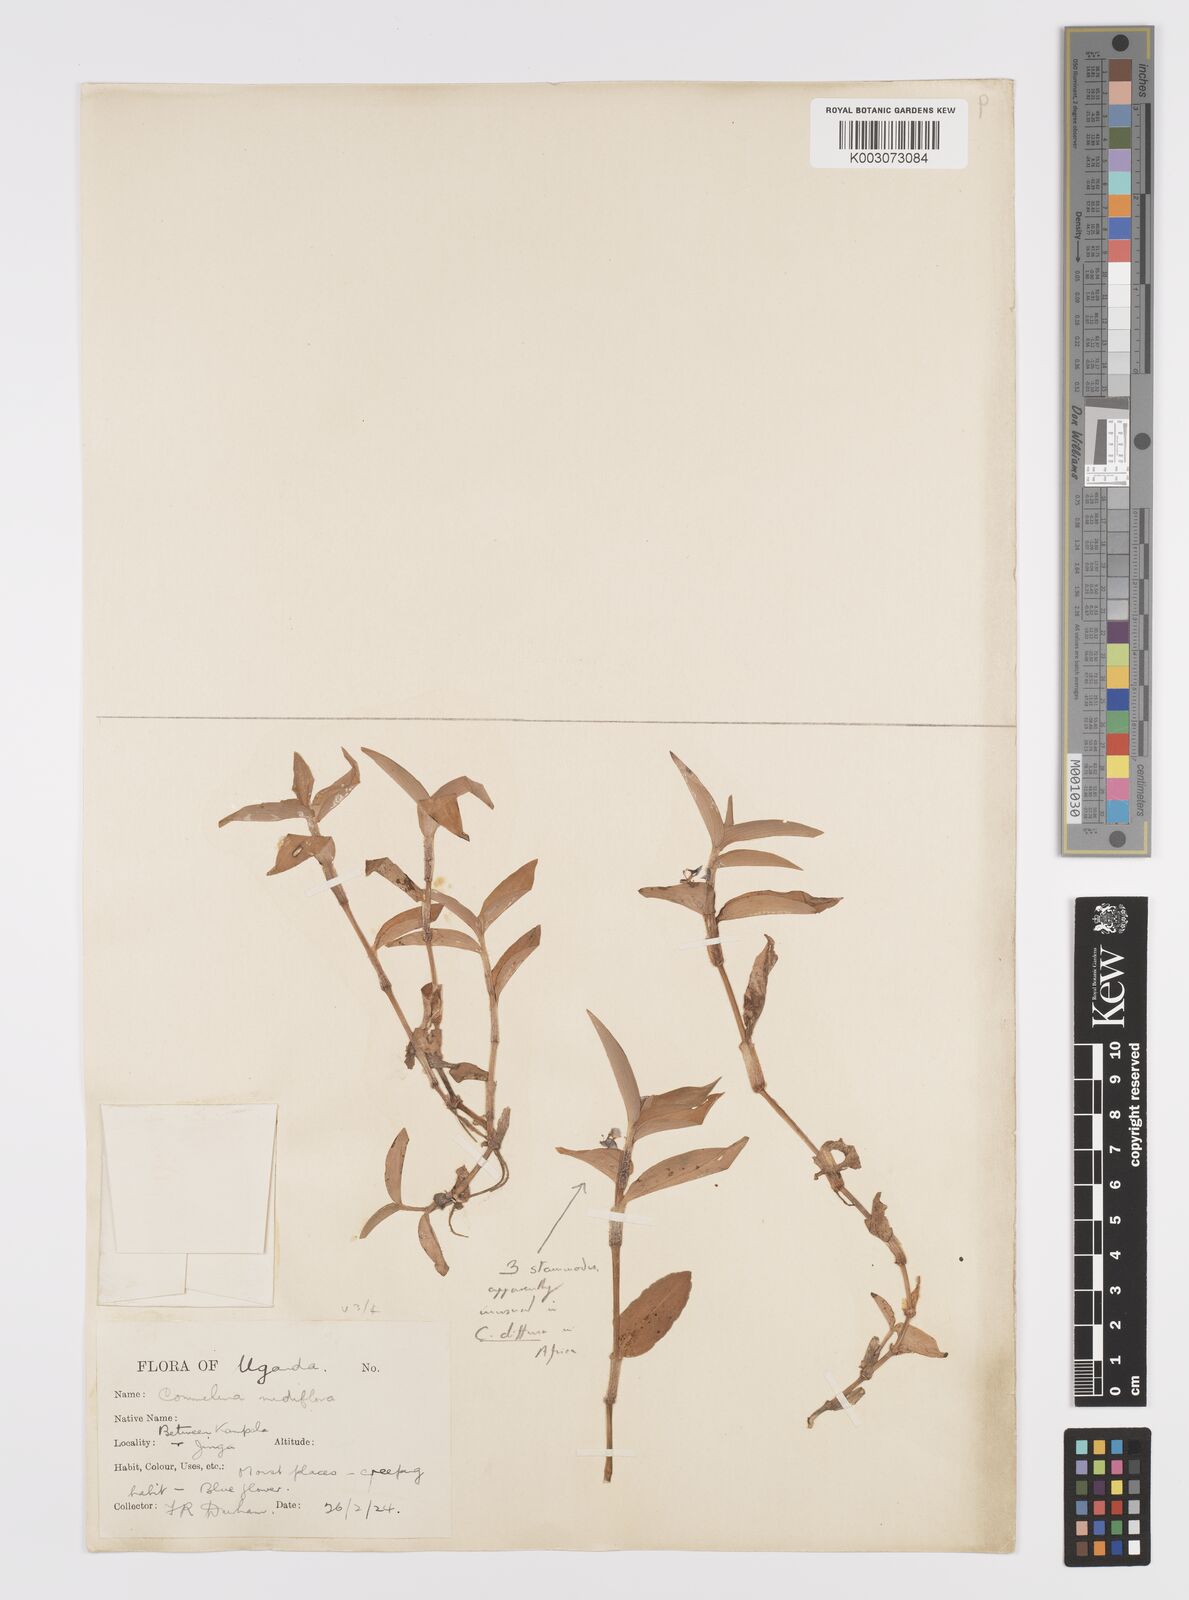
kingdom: Plantae
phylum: Tracheophyta
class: Liliopsida
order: Commelinales
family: Commelinaceae
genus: Commelina
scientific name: Commelina diffusa
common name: Climbing dayflower
